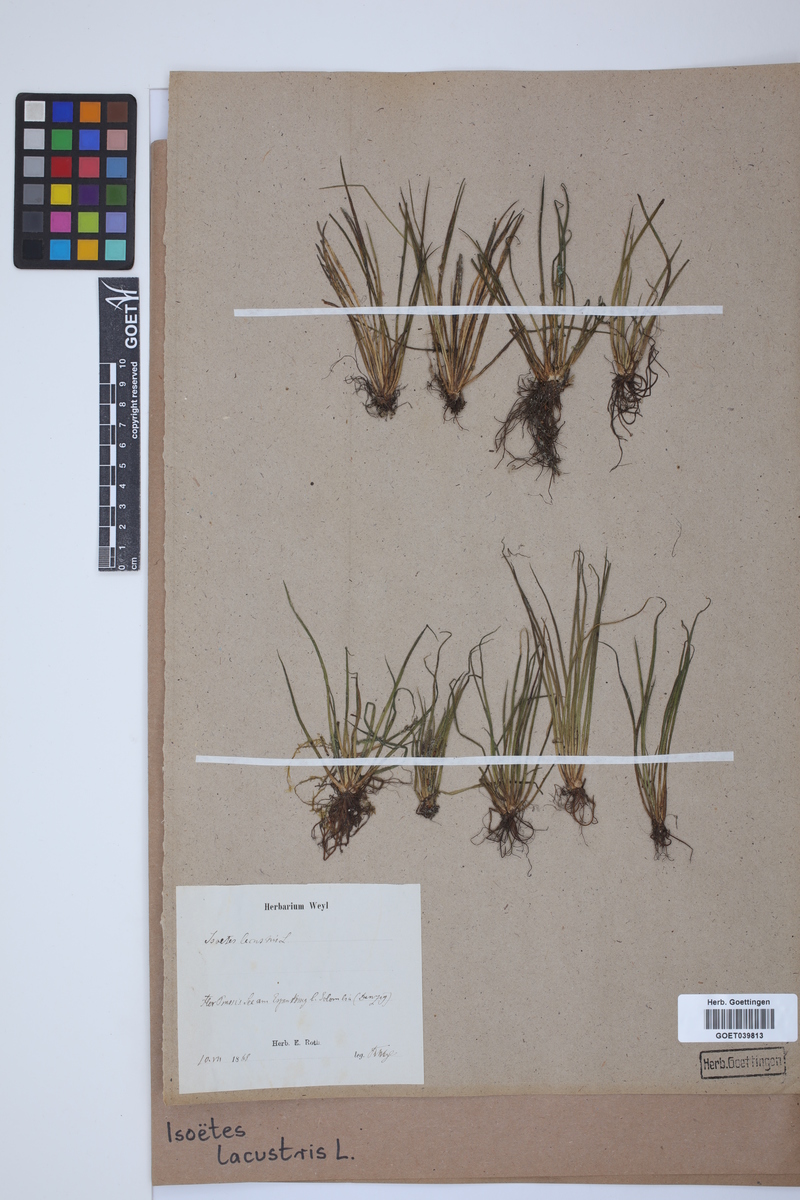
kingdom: Plantae
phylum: Tracheophyta
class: Lycopodiopsida
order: Isoetales
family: Isoetaceae
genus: Isoetes
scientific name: Isoetes lacustris
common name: Common quillwort
